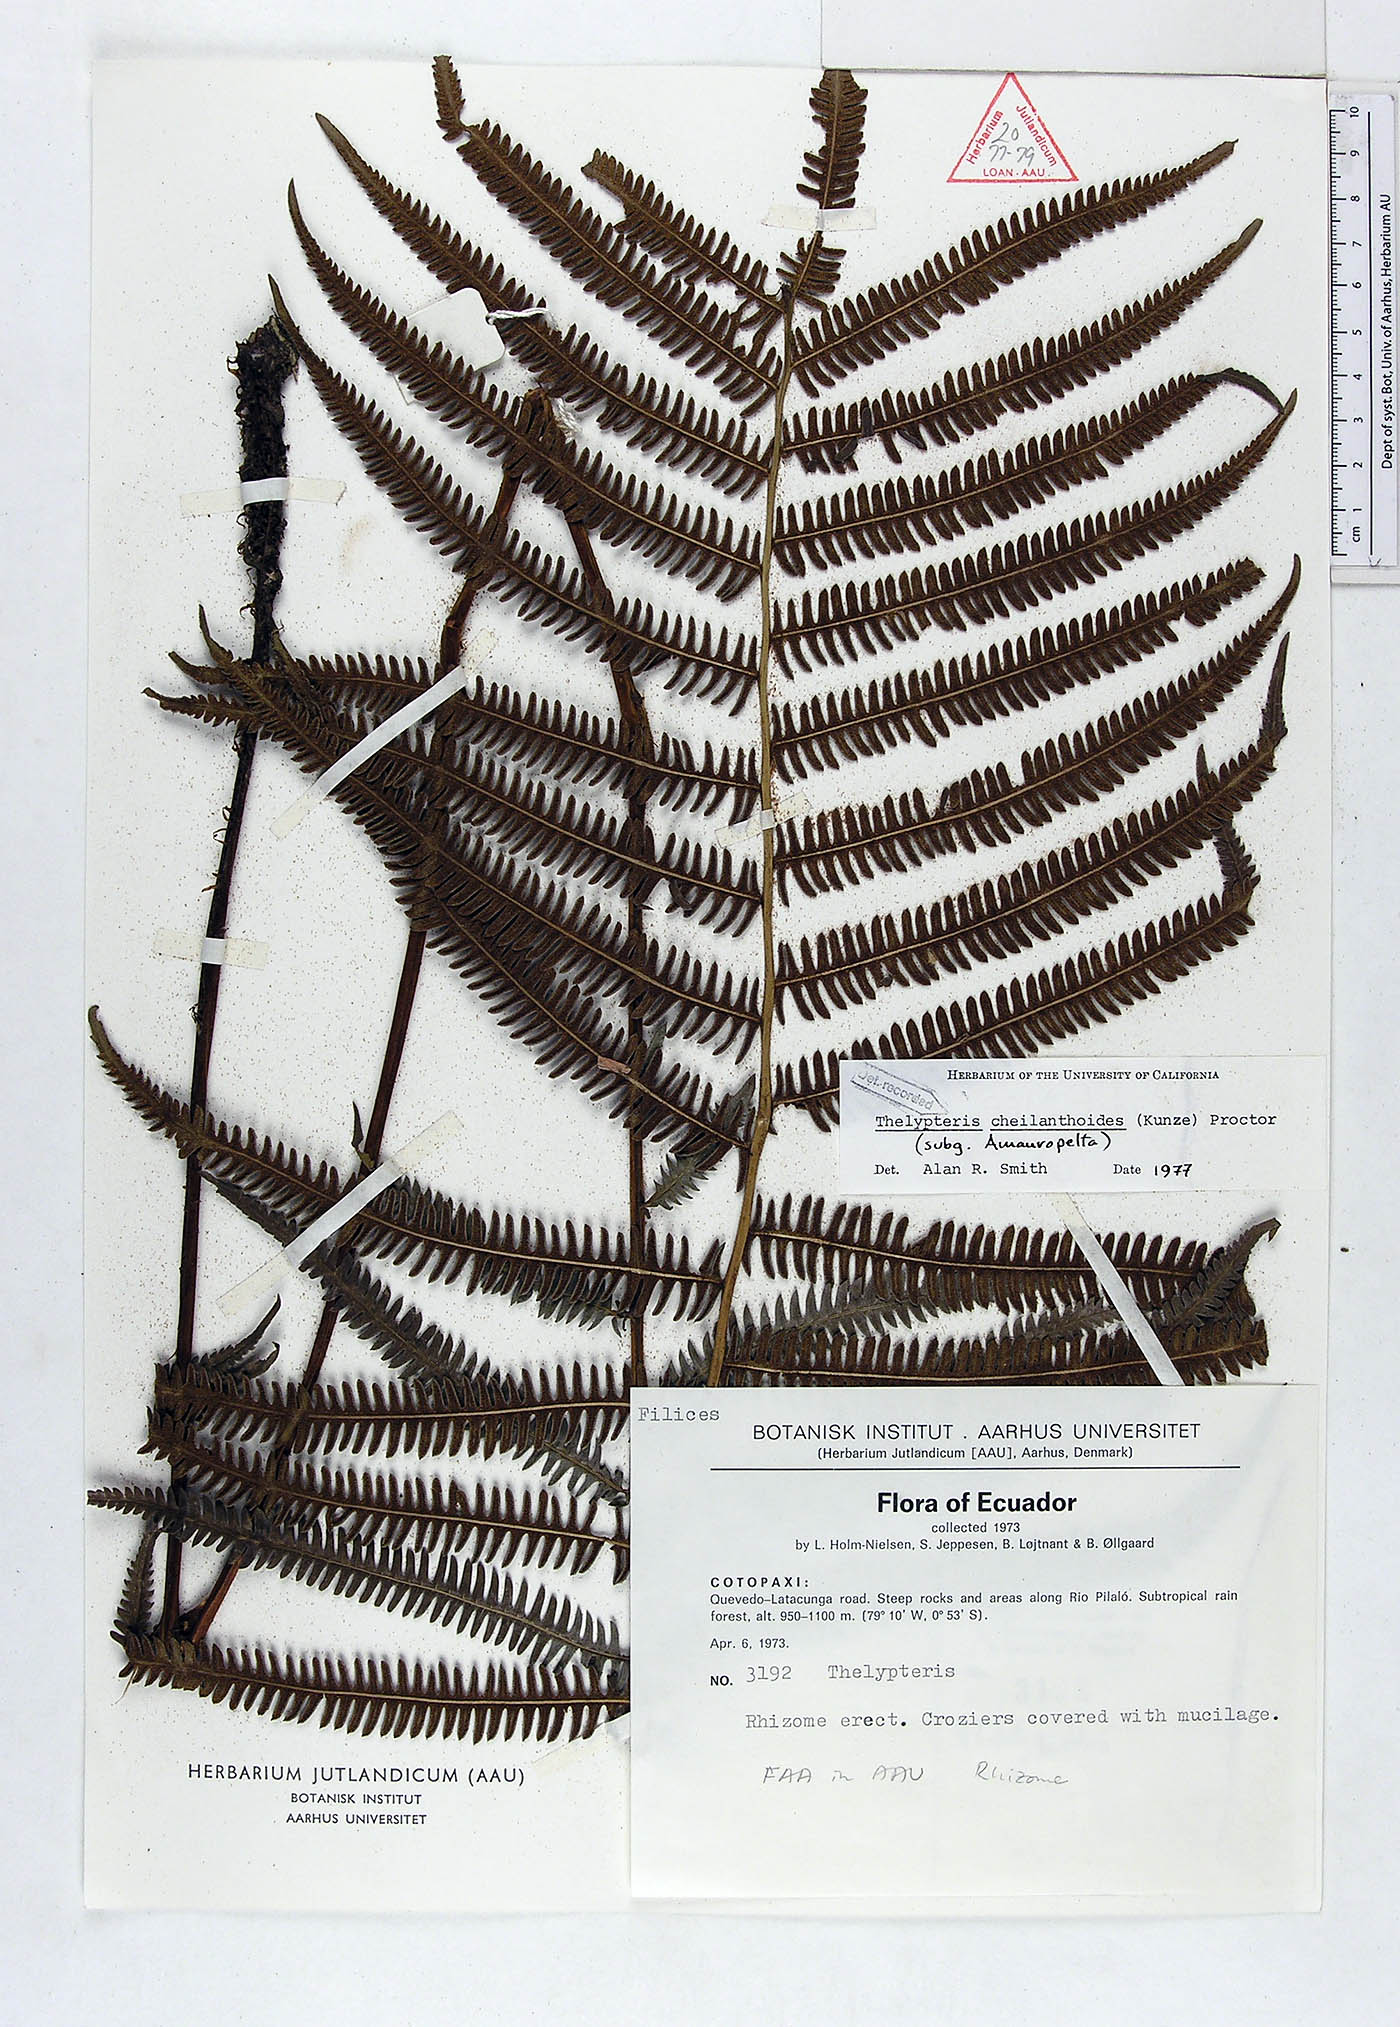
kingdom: Plantae
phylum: Tracheophyta
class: Polypodiopsida
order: Polypodiales
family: Thelypteridaceae
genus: Amauropelta
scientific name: Amauropelta cheilanthoides
